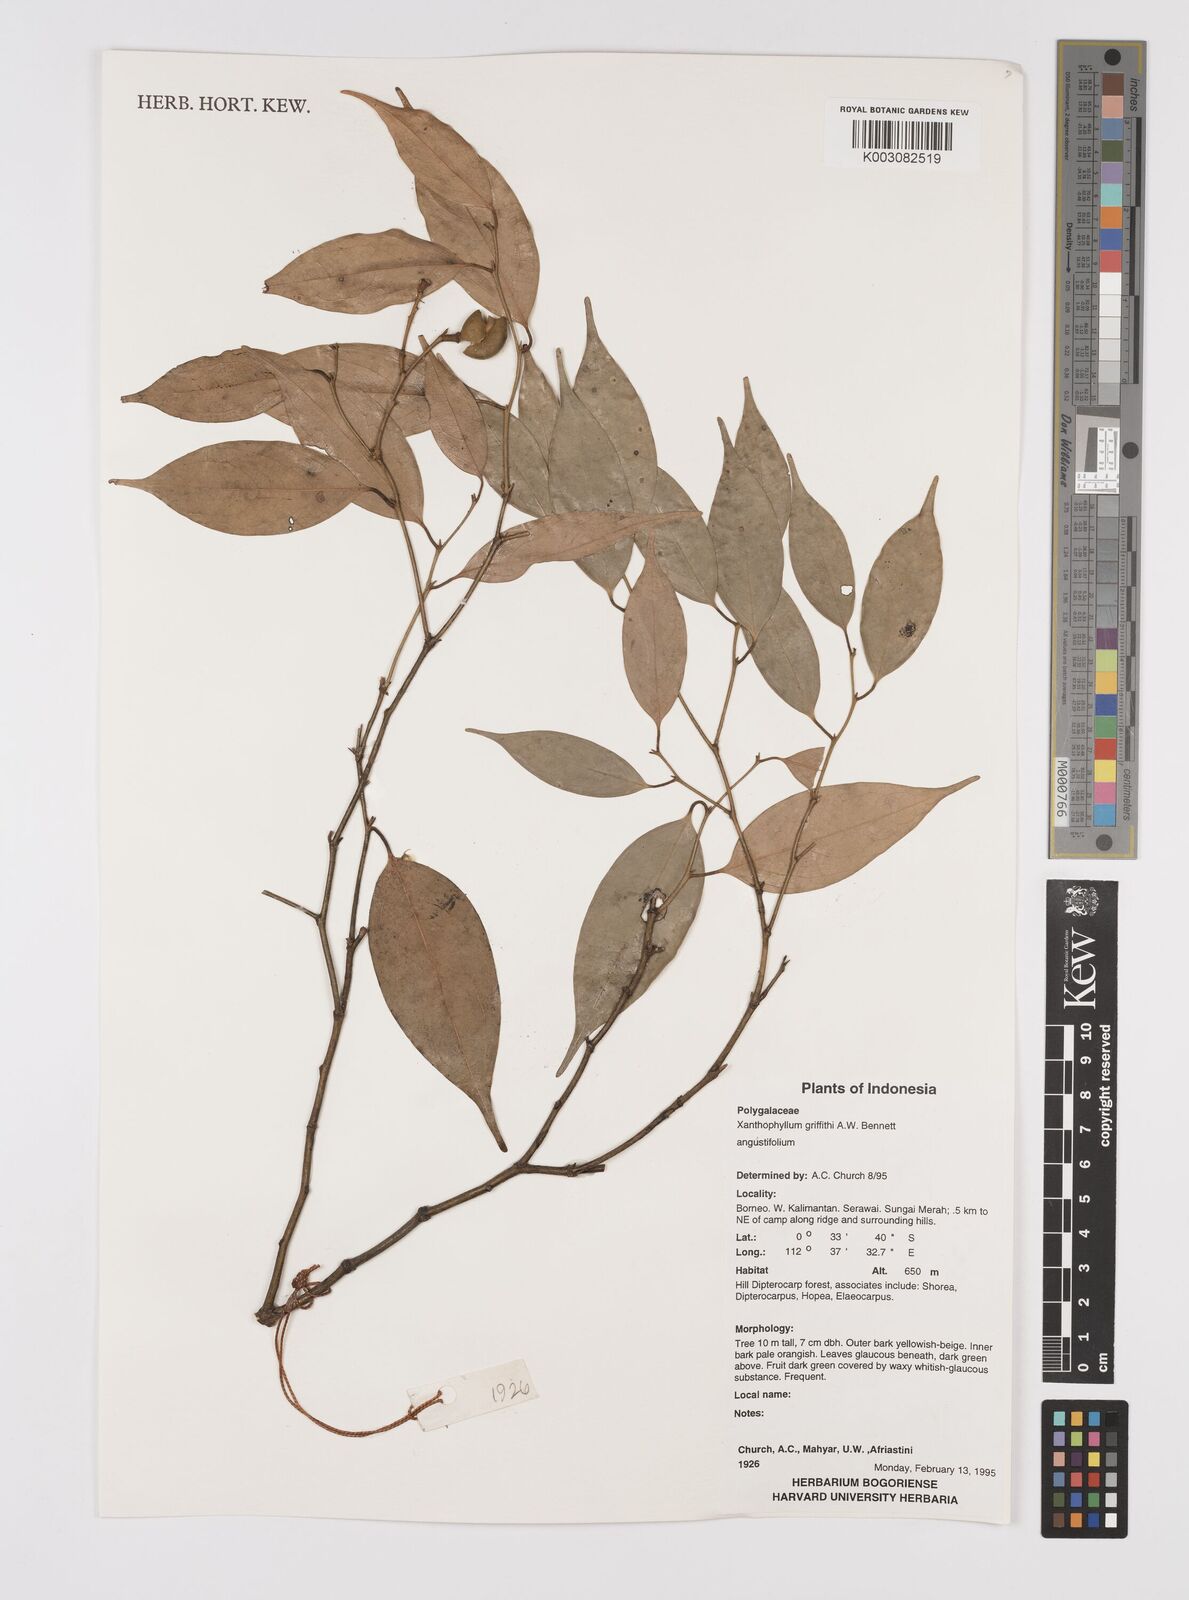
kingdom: Plantae
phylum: Tracheophyta
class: Magnoliopsida
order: Fabales
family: Polygalaceae
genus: Xanthophyllum
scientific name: Xanthophyllum griffithii
